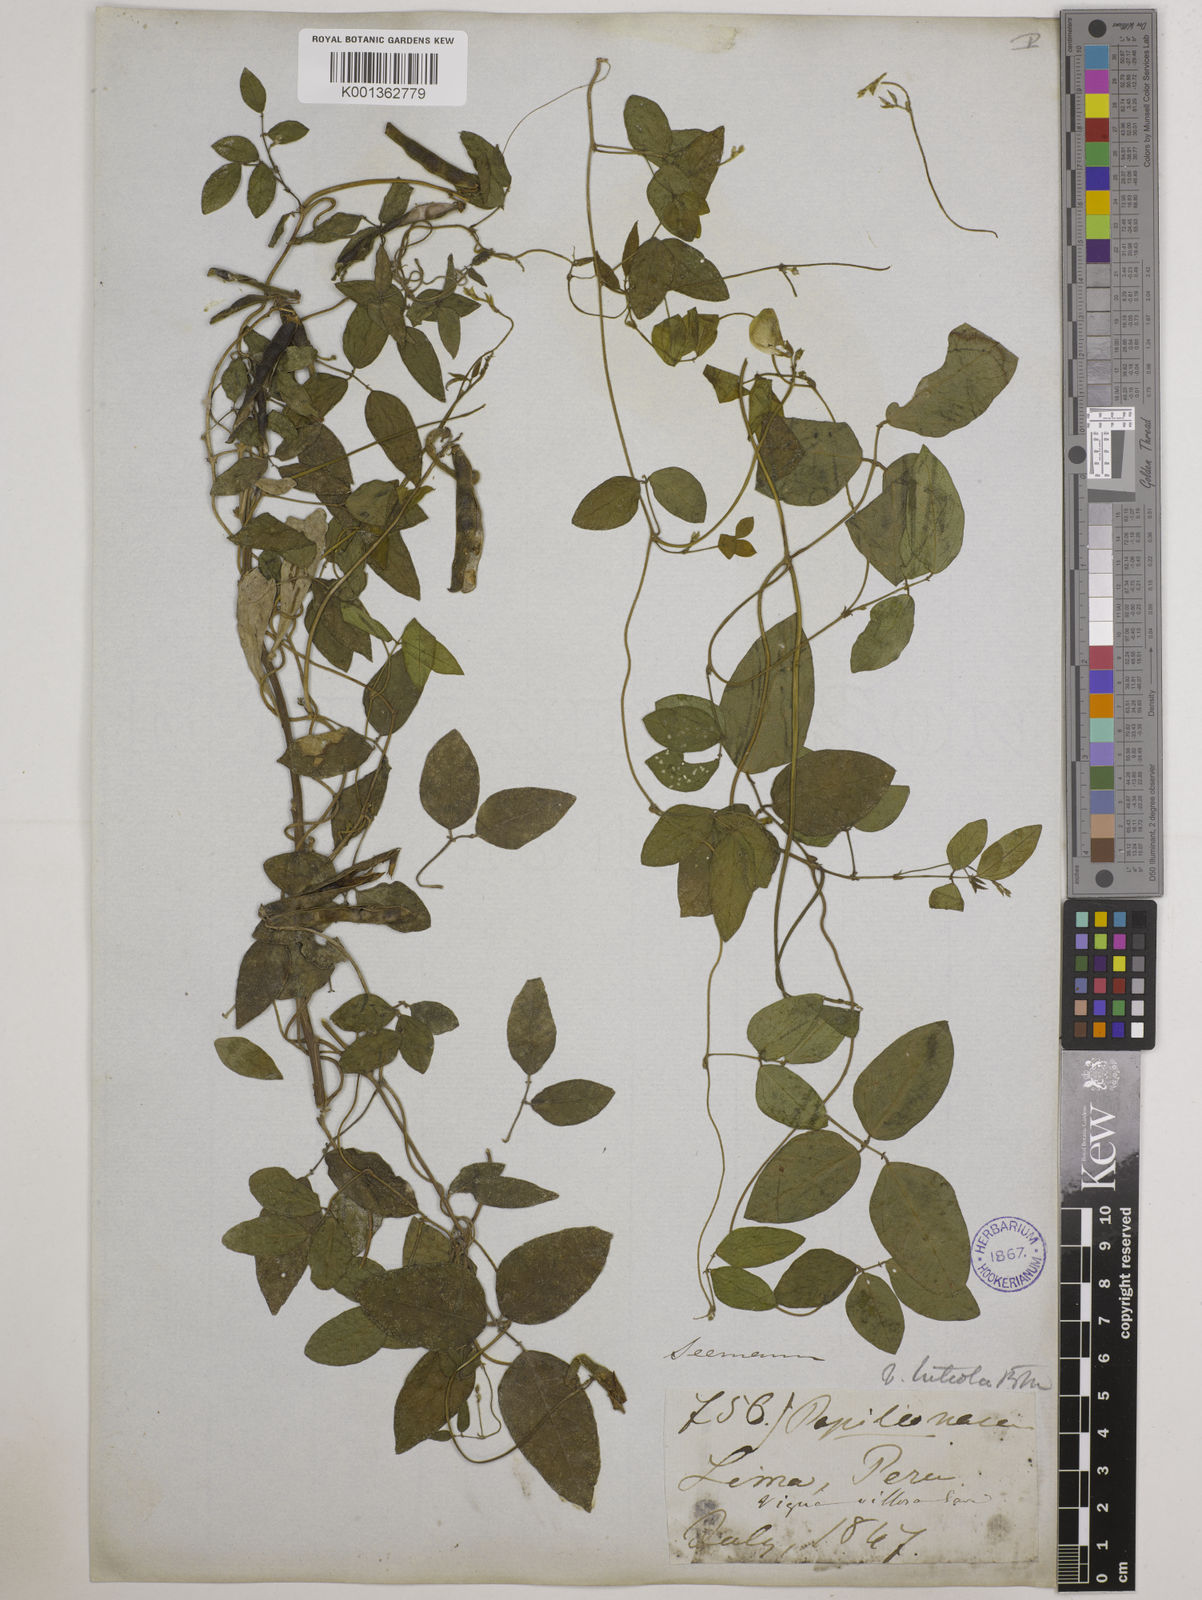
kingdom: Plantae
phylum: Tracheophyta
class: Magnoliopsida
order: Fabales
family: Fabaceae
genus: Vigna
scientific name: Vigna luteola
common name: Hairypod cowpea
